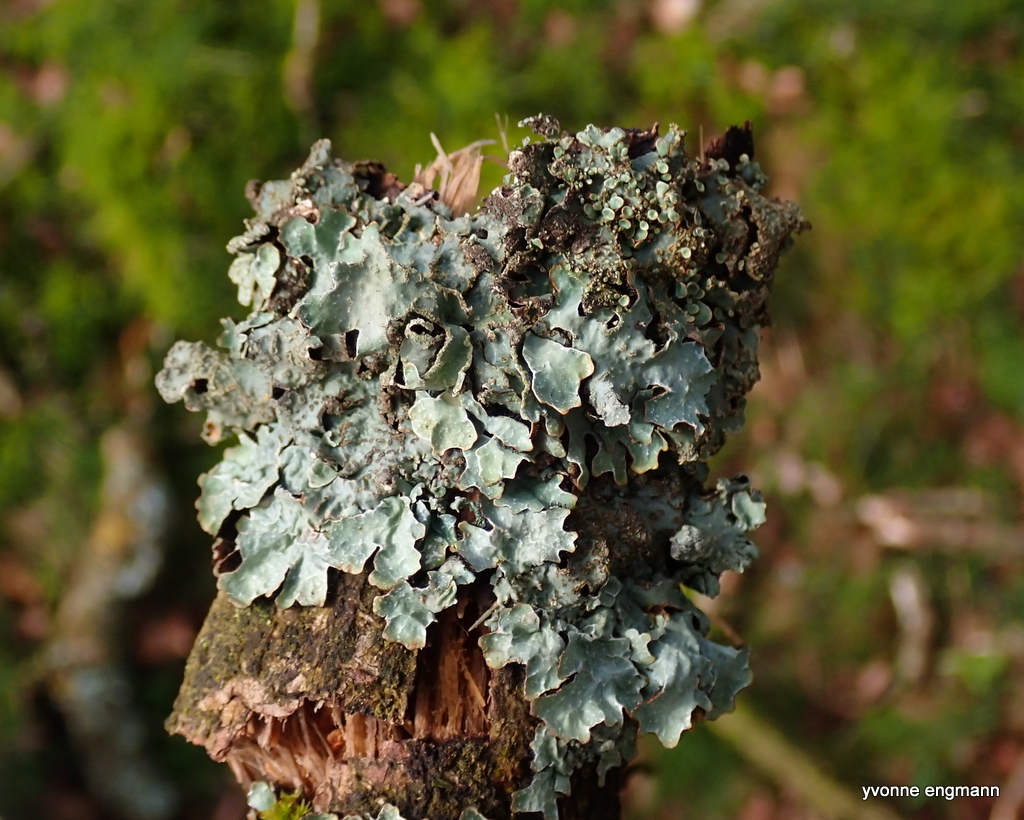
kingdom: Fungi
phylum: Ascomycota
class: Lecanoromycetes
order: Lecanorales
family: Parmeliaceae
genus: Parmelia
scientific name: Parmelia sulcata
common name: rynket skållav
